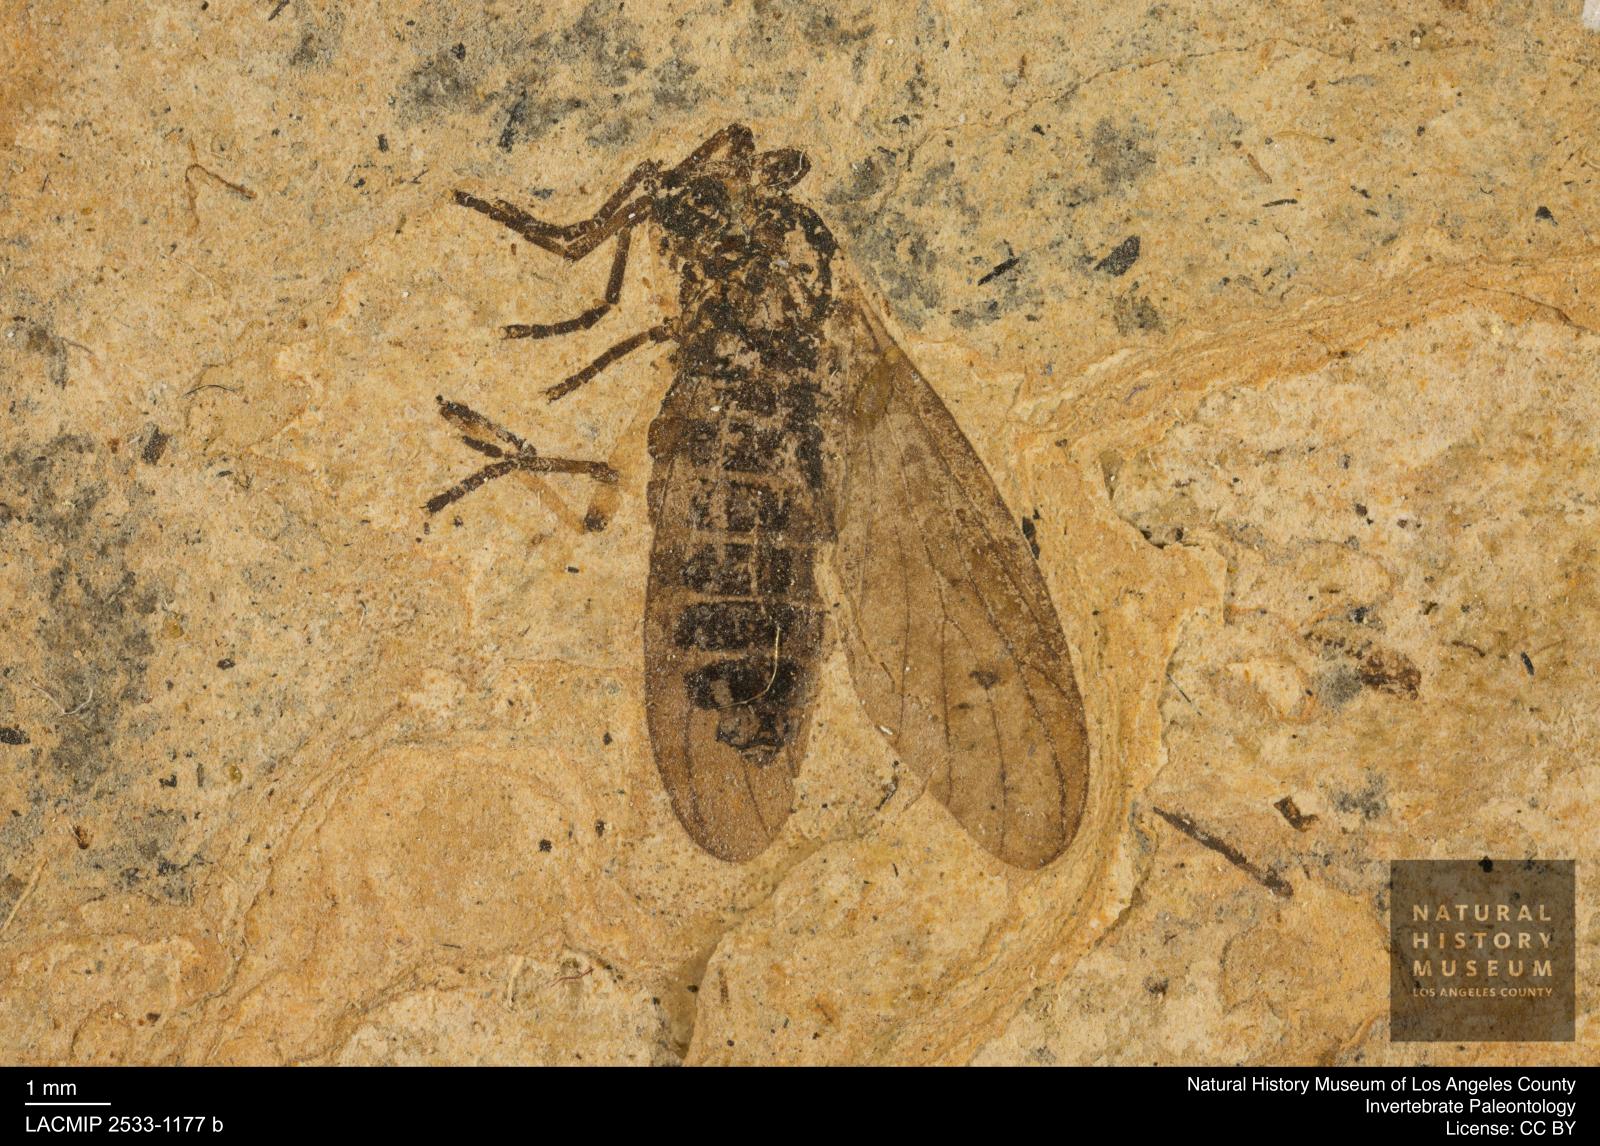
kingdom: Animalia
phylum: Arthropoda
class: Insecta
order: Diptera
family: Bibionidae
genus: Plecia
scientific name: Plecia hypogaea
